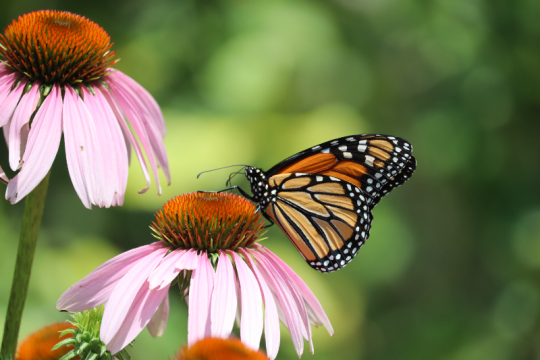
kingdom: Animalia
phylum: Arthropoda
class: Insecta
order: Lepidoptera
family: Nymphalidae
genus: Danaus
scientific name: Danaus plexippus
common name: Monarch
